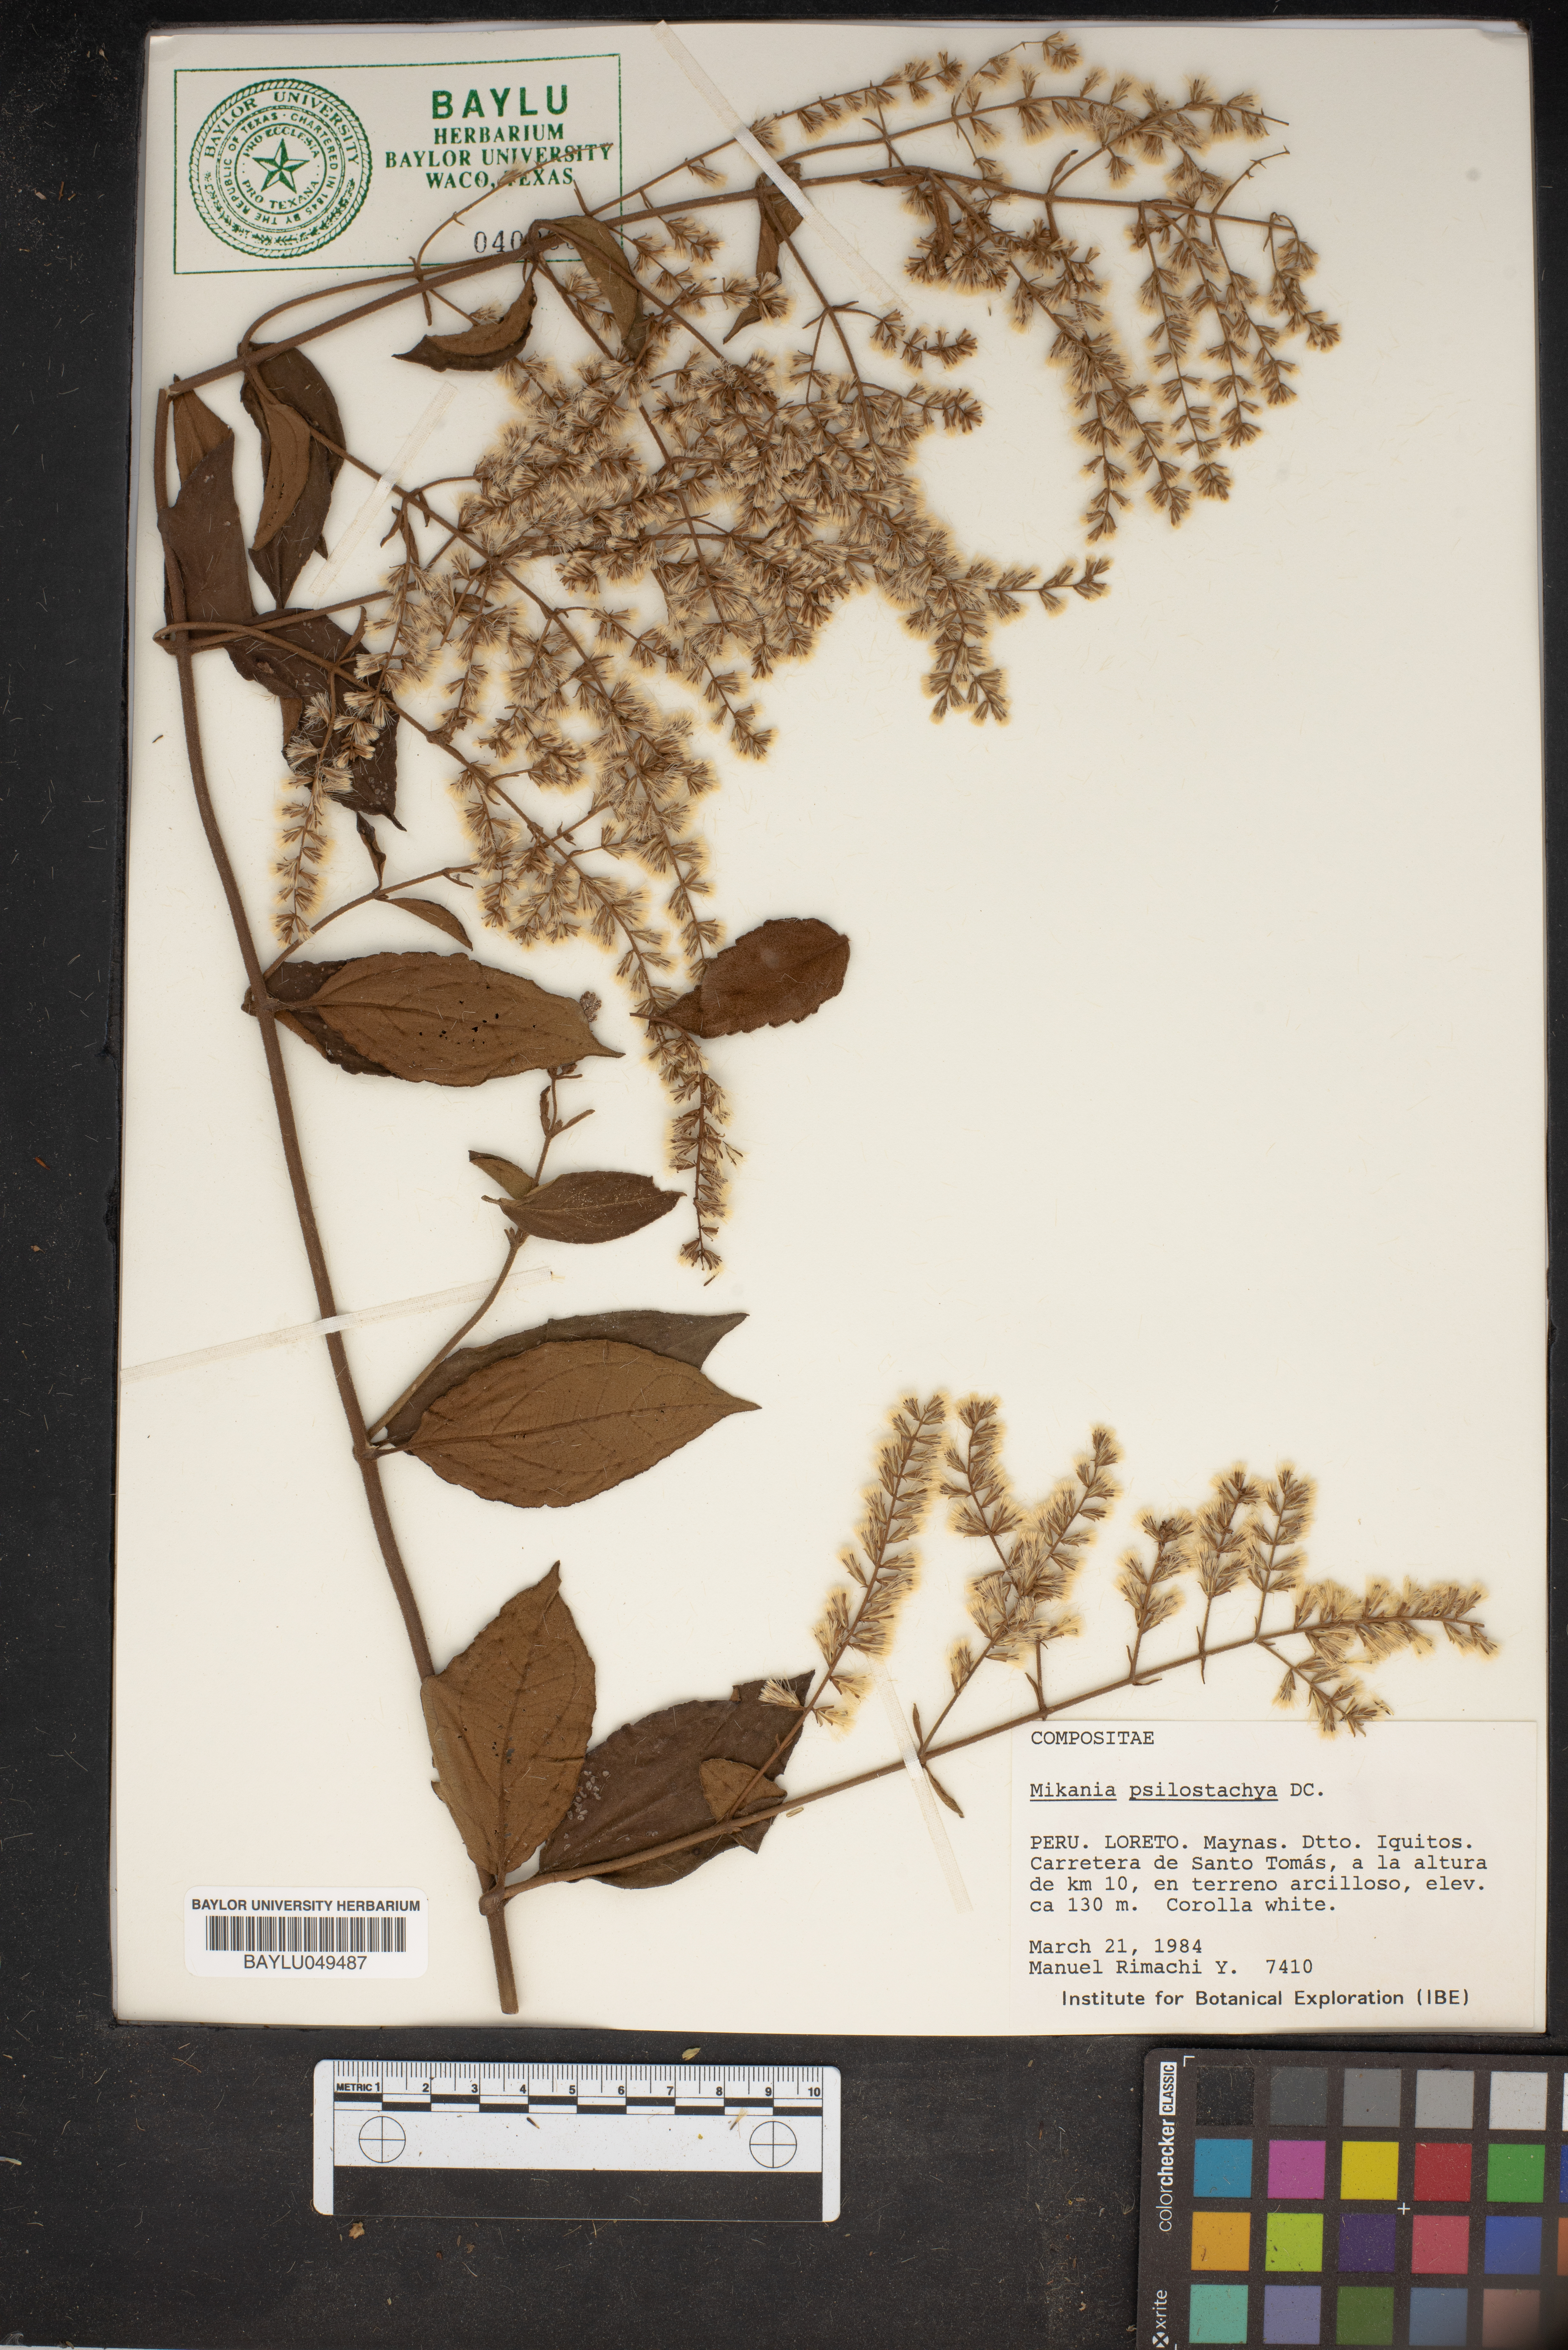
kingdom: Plantae
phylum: Tracheophyta
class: Magnoliopsida
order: Asterales
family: Asteraceae
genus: Mikania
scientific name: Mikania psilostachya
